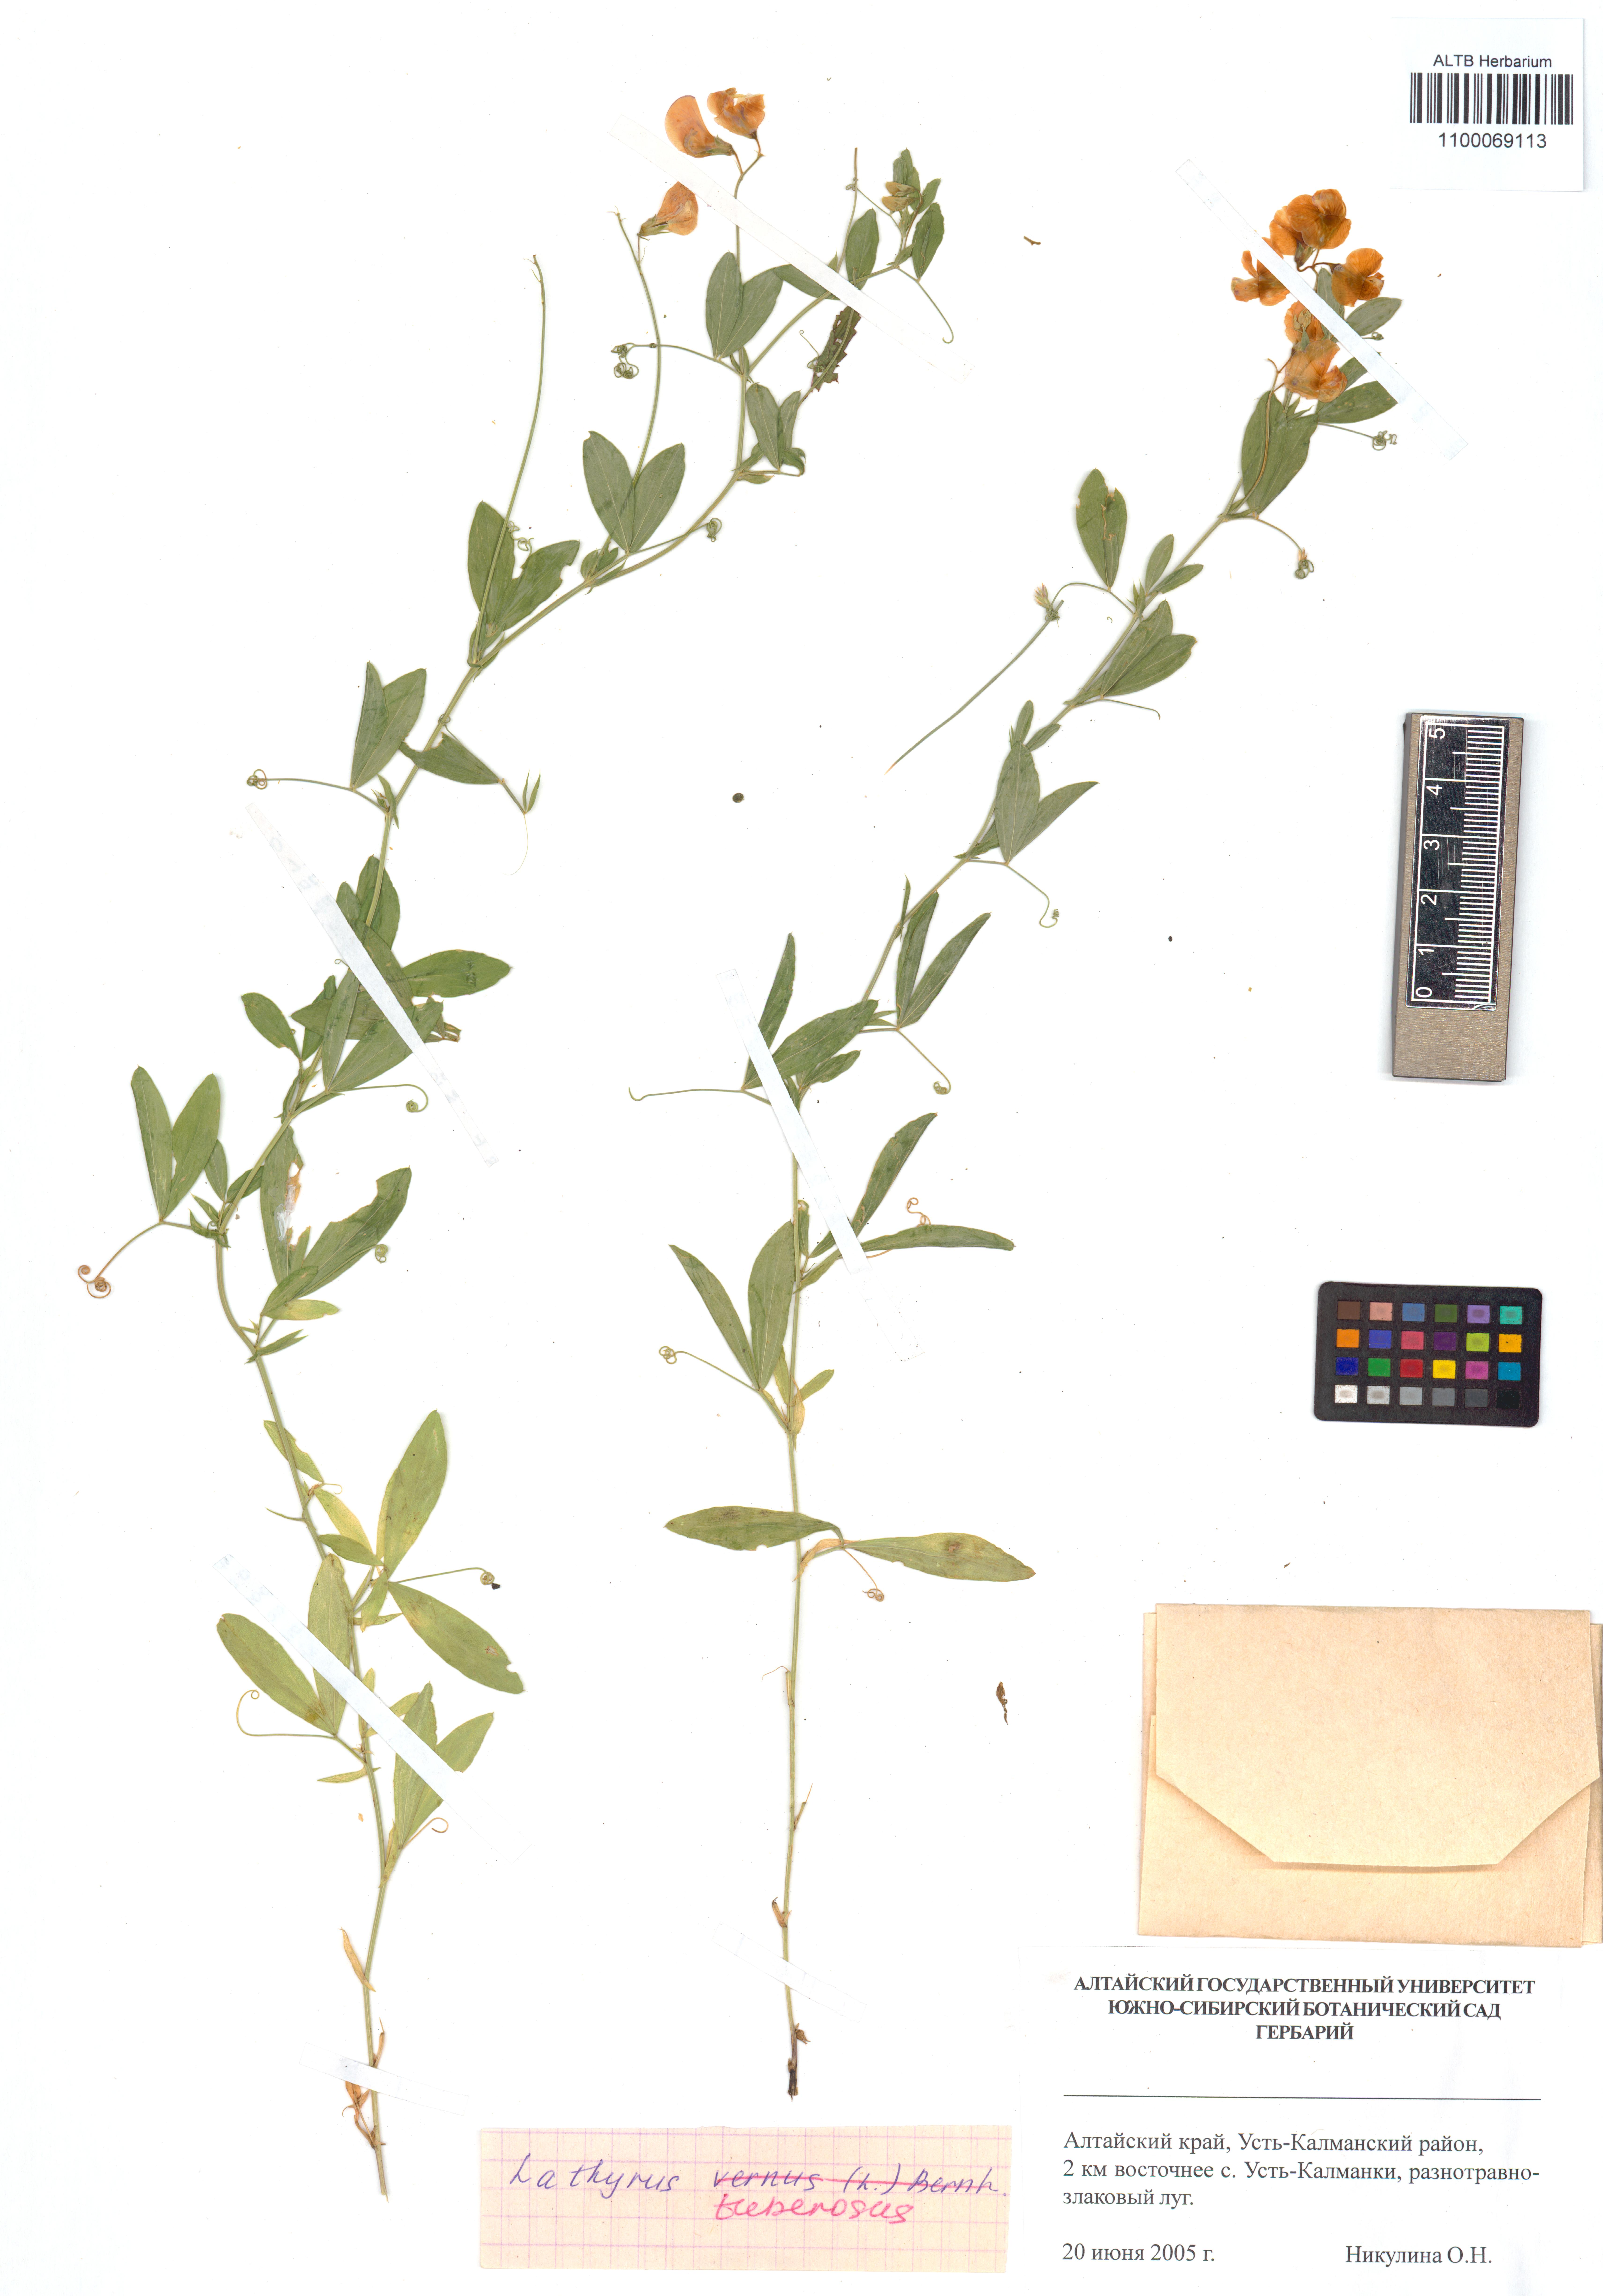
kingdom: Plantae
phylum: Tracheophyta
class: Magnoliopsida
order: Fabales
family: Fabaceae
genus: Lathyrus
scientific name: Lathyrus tuberosus
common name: Tuberous pea
